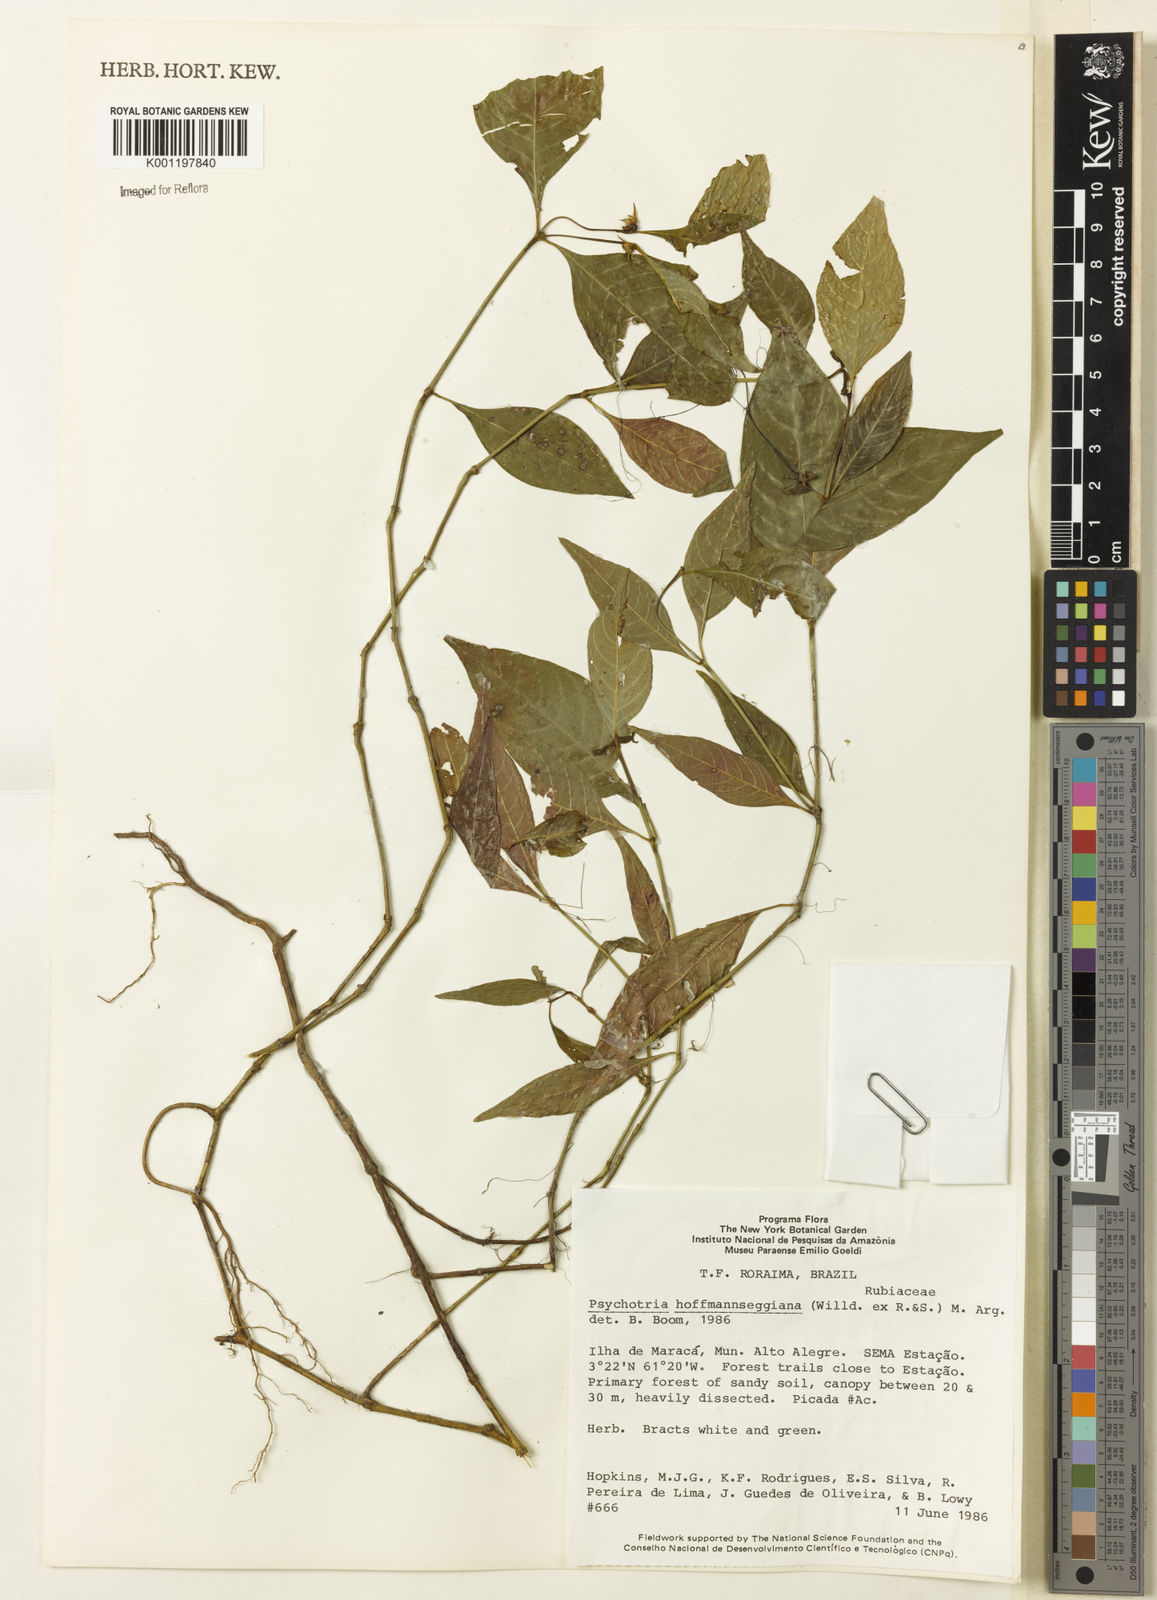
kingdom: Plantae
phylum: Tracheophyta
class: Magnoliopsida
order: Gentianales
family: Rubiaceae
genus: Psychotria
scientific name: Psychotria
